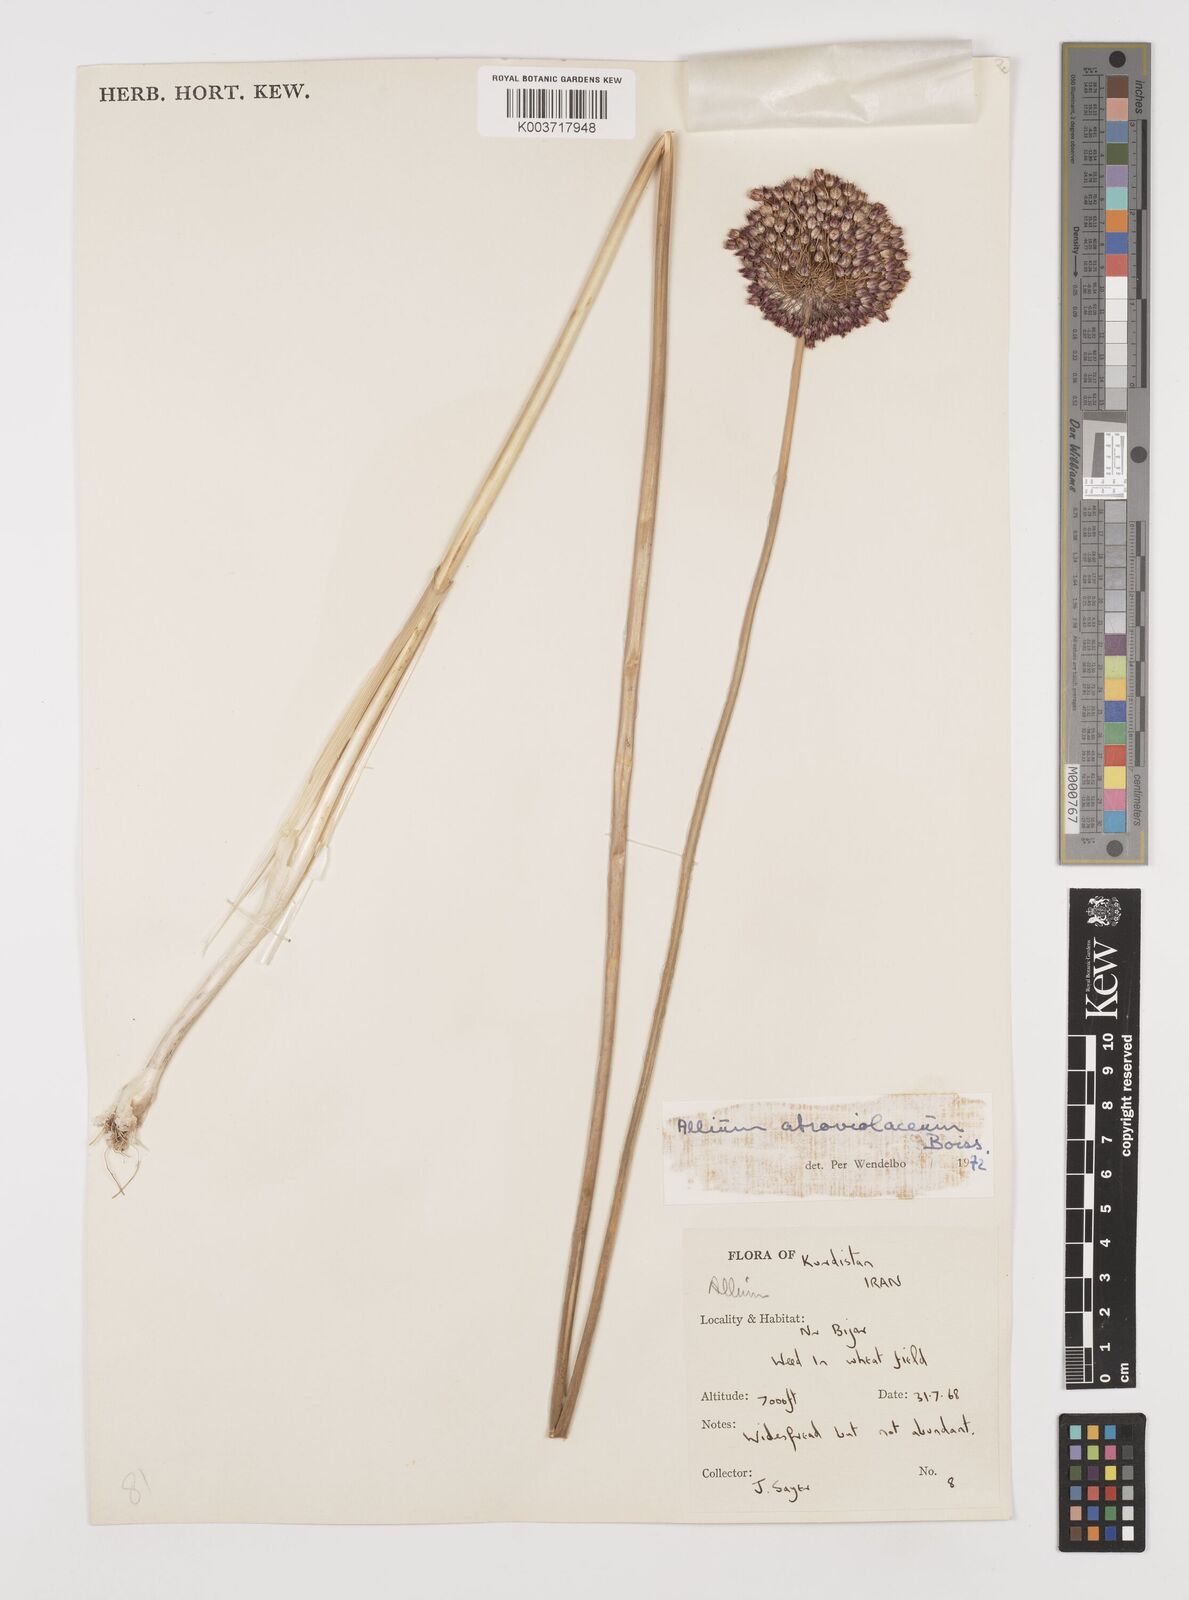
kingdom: Plantae
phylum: Tracheophyta
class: Liliopsida
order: Asparagales
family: Amaryllidaceae
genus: Allium
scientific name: Allium atroviolaceum
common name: Broadleaf wild leek
